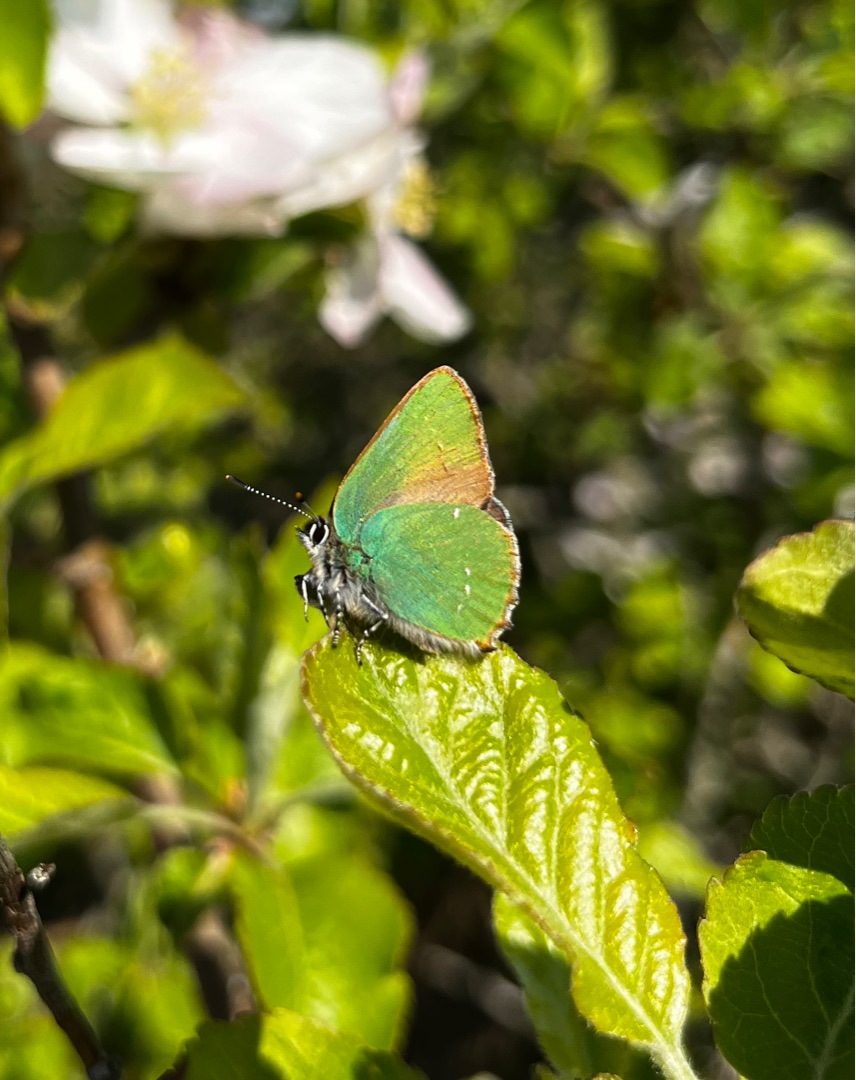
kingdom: Animalia
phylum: Arthropoda
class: Insecta
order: Lepidoptera
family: Lycaenidae
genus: Callophrys
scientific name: Callophrys rubi
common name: Grøn busksommerfugl
